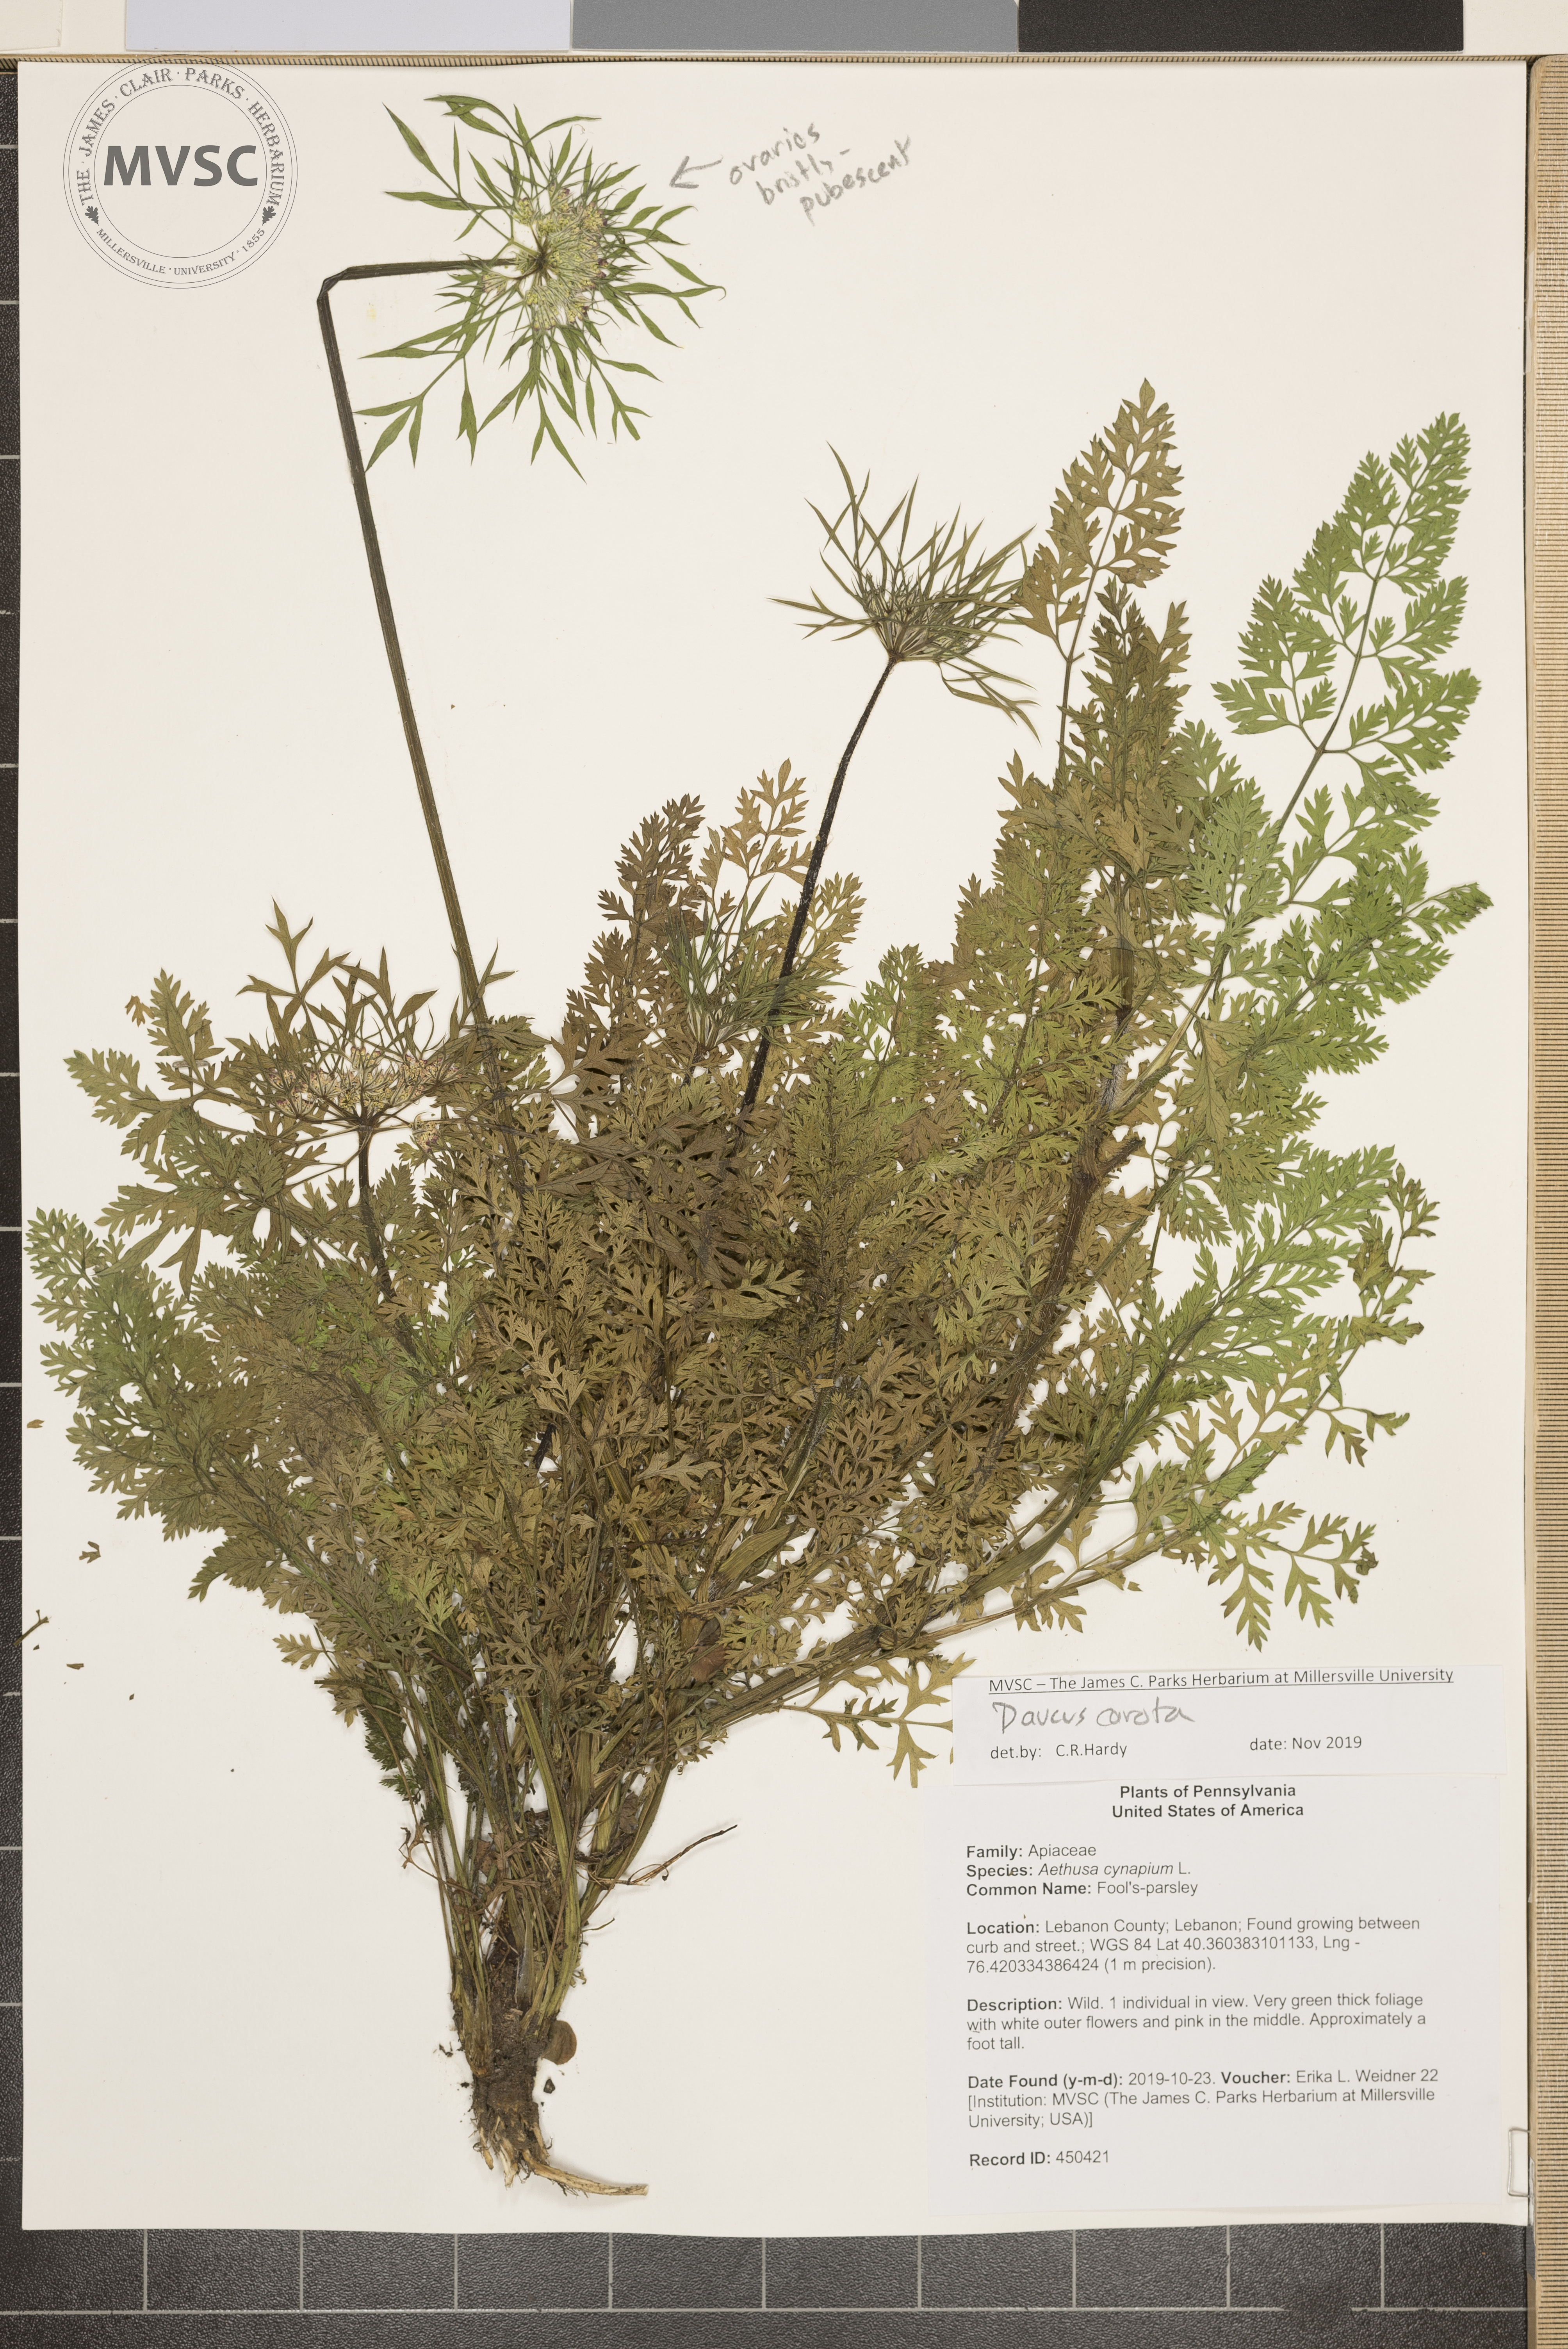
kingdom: Plantae
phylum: Tracheophyta
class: Magnoliopsida
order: Apiales
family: Apiaceae
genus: Daucus
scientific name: Daucus carota
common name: Queen Anne's lace
